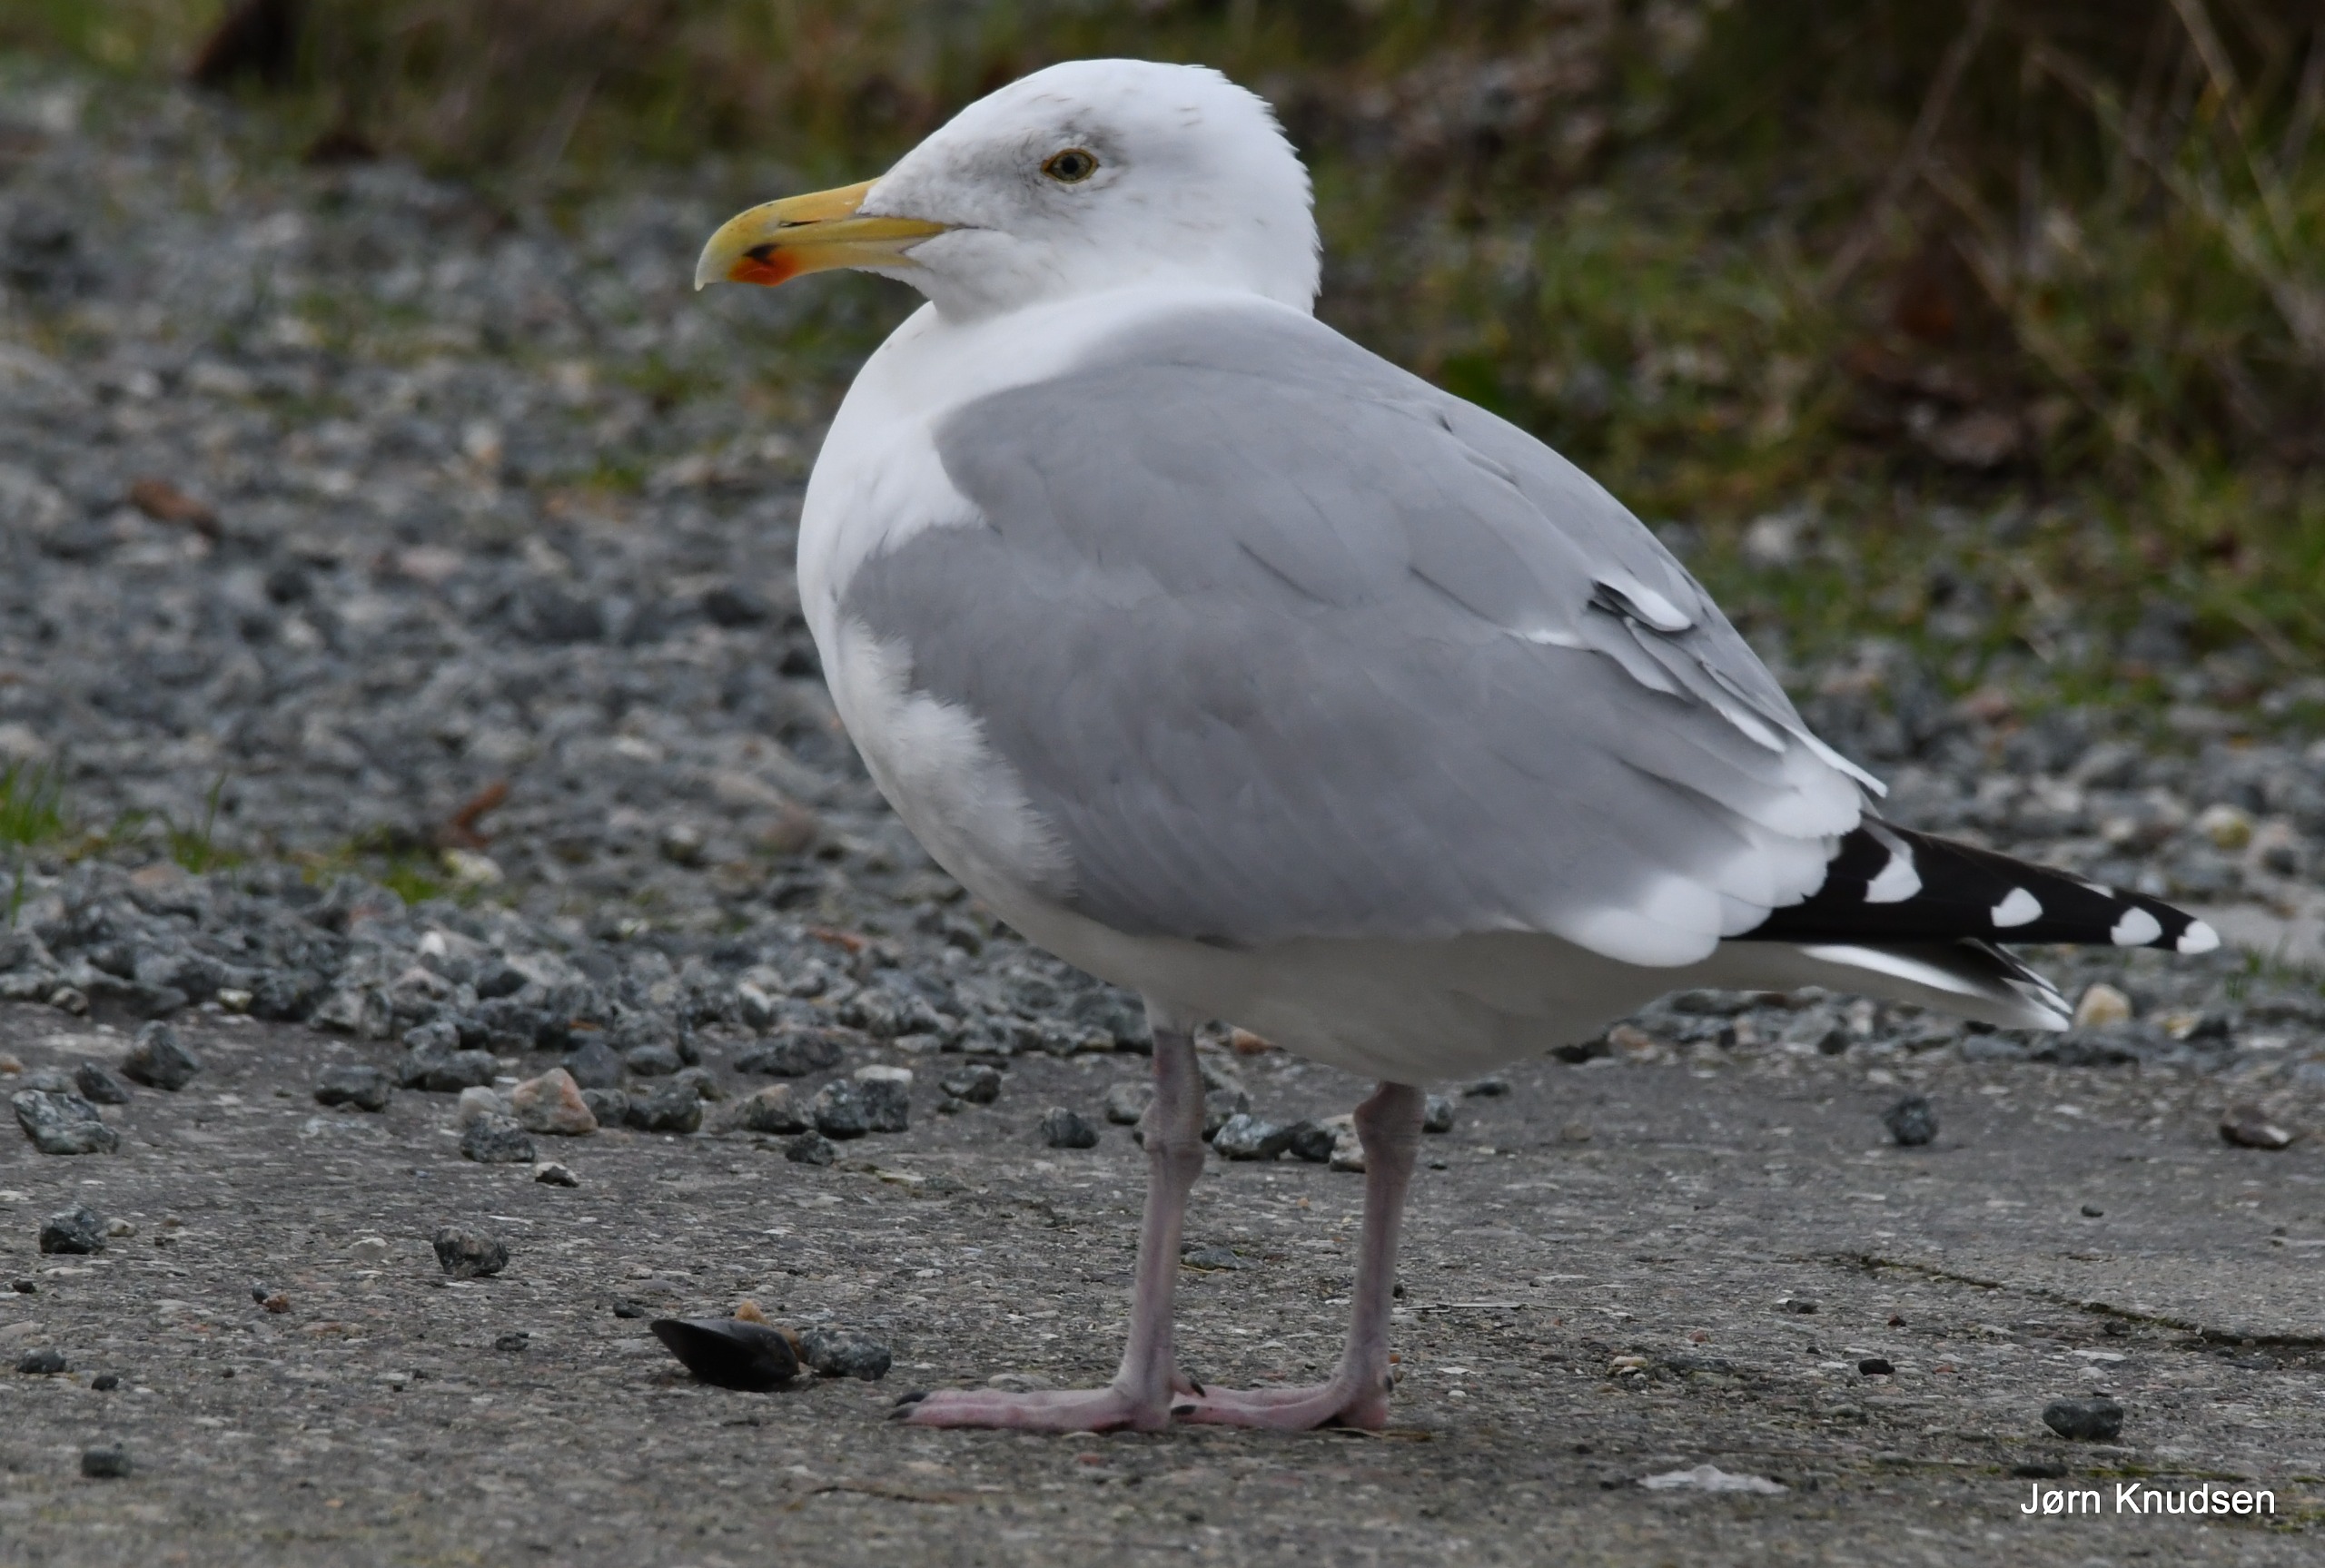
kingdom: Animalia
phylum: Chordata
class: Aves
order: Charadriiformes
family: Laridae
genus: Larus
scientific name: Larus argentatus
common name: Sølvmåge
